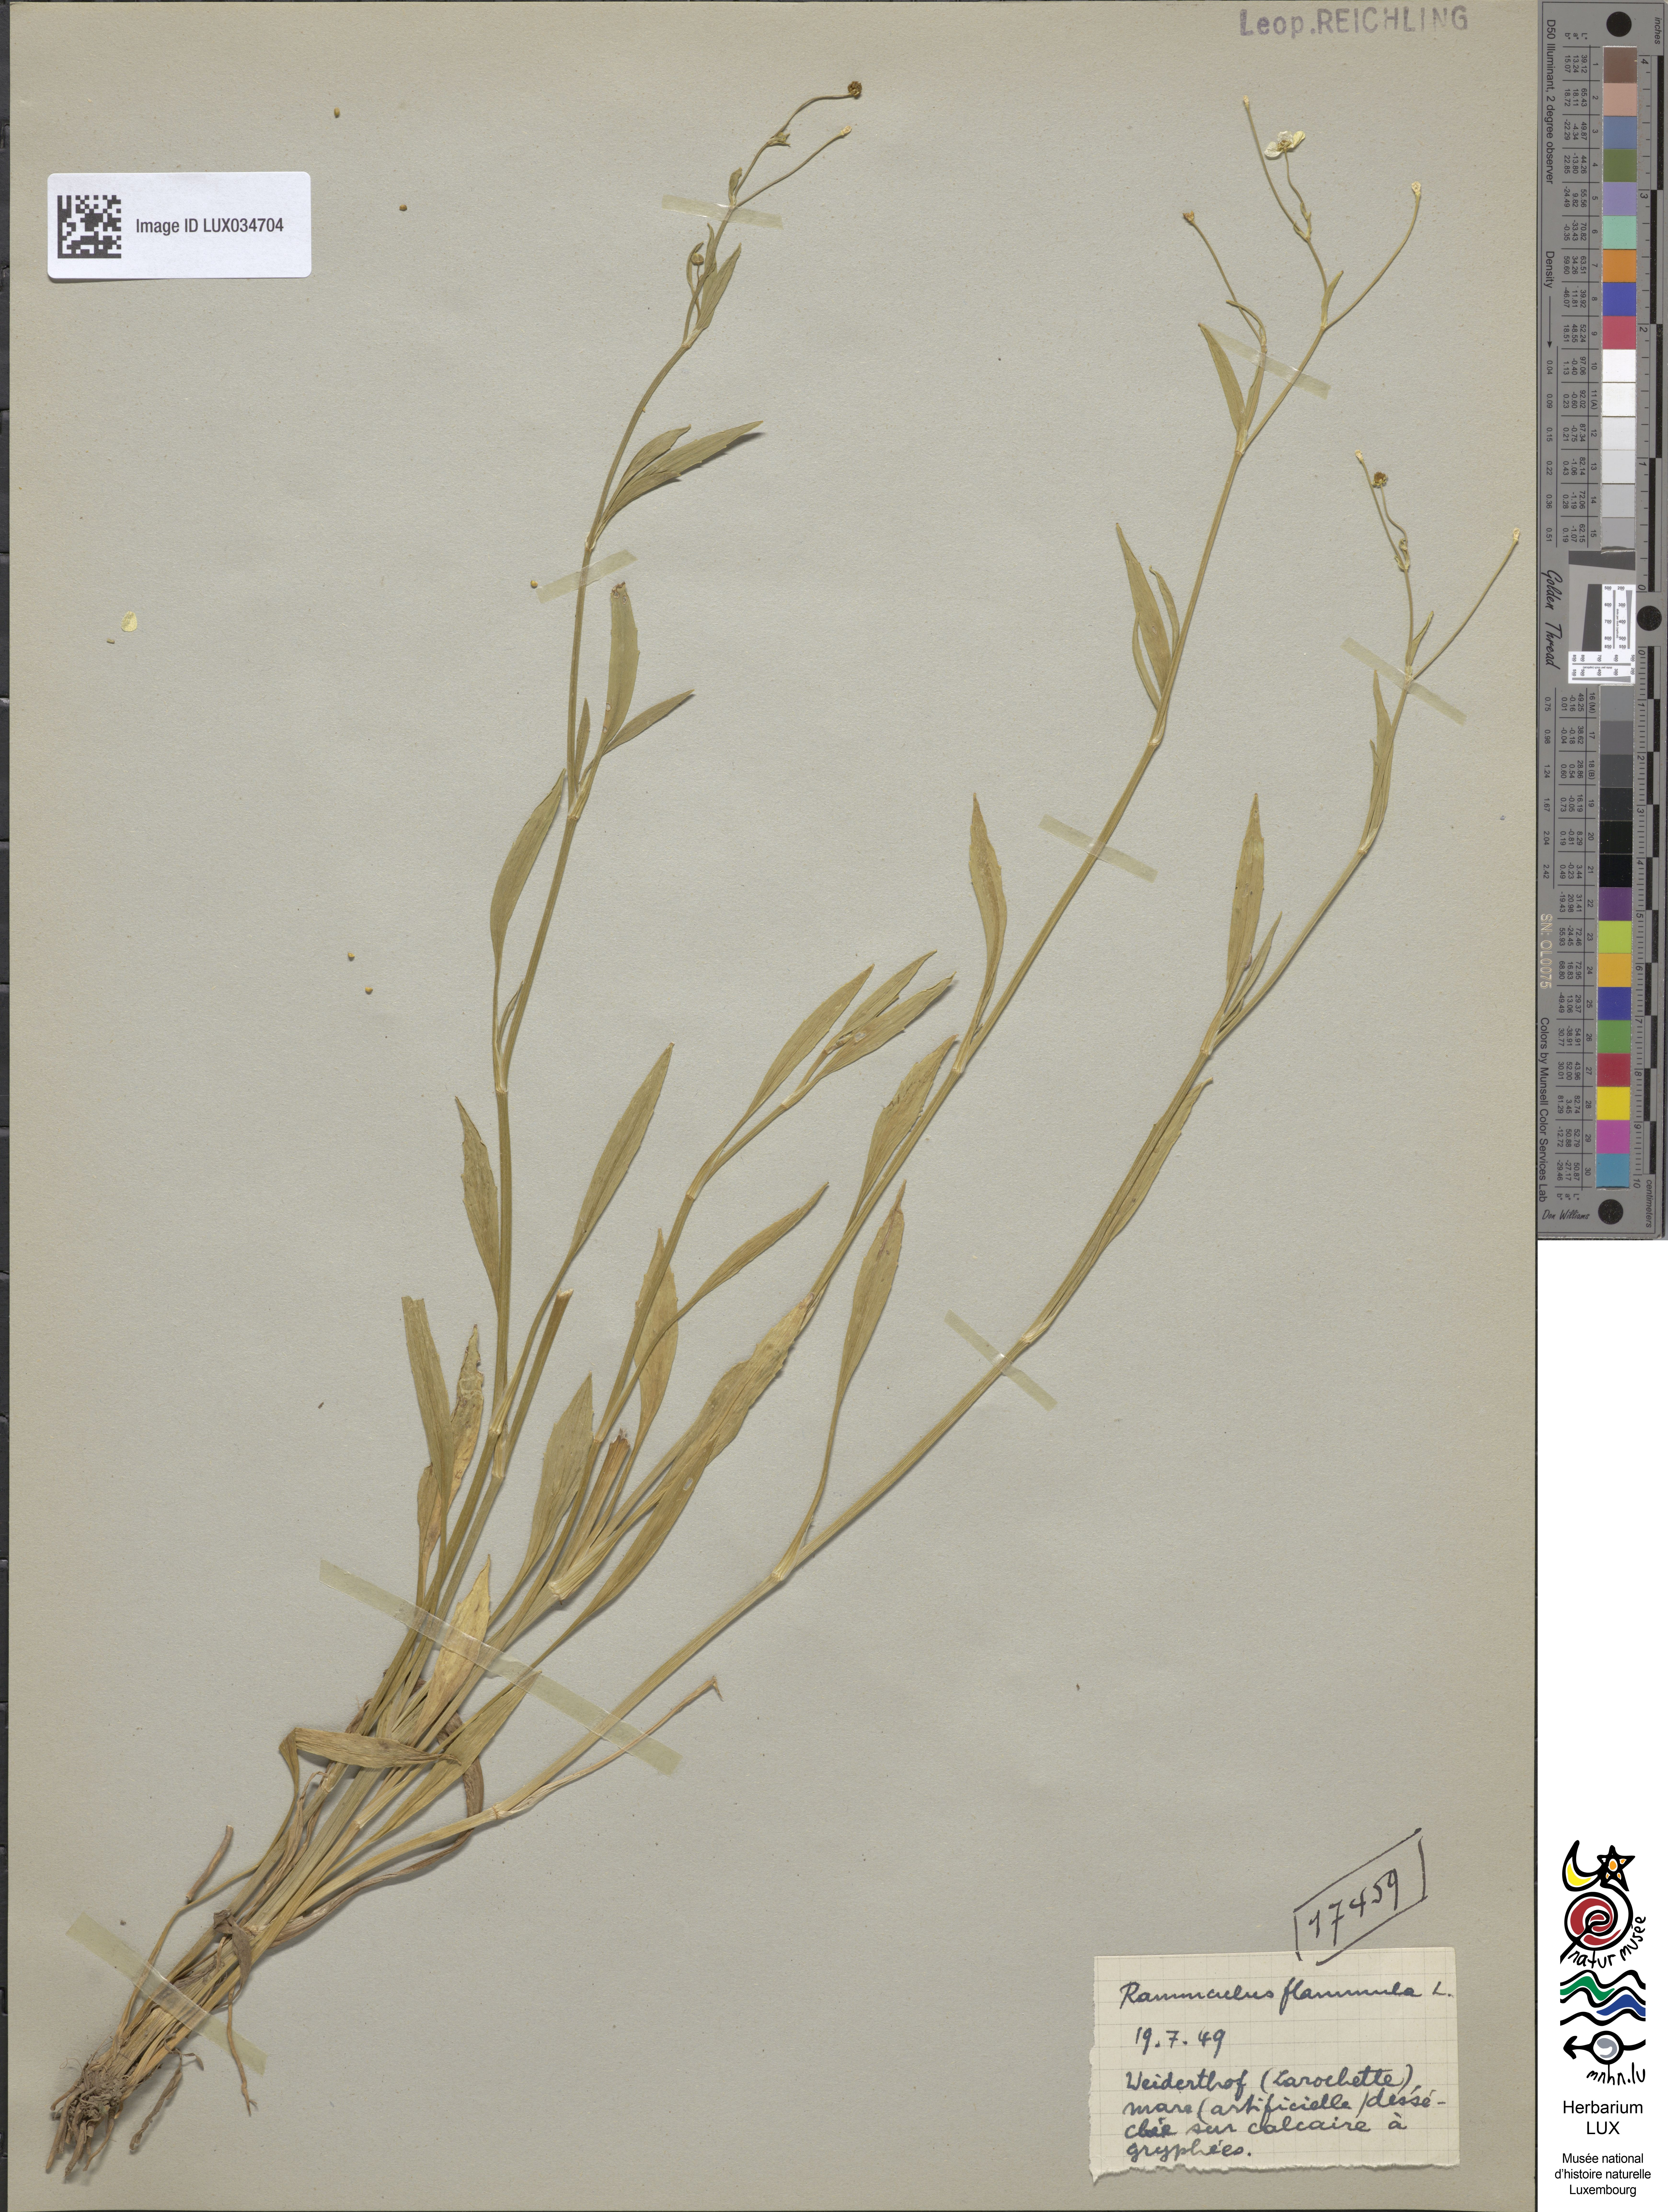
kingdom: Plantae
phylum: Tracheophyta
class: Magnoliopsida
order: Ranunculales
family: Ranunculaceae
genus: Ranunculus
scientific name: Ranunculus flammula
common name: Lesser spearwort
